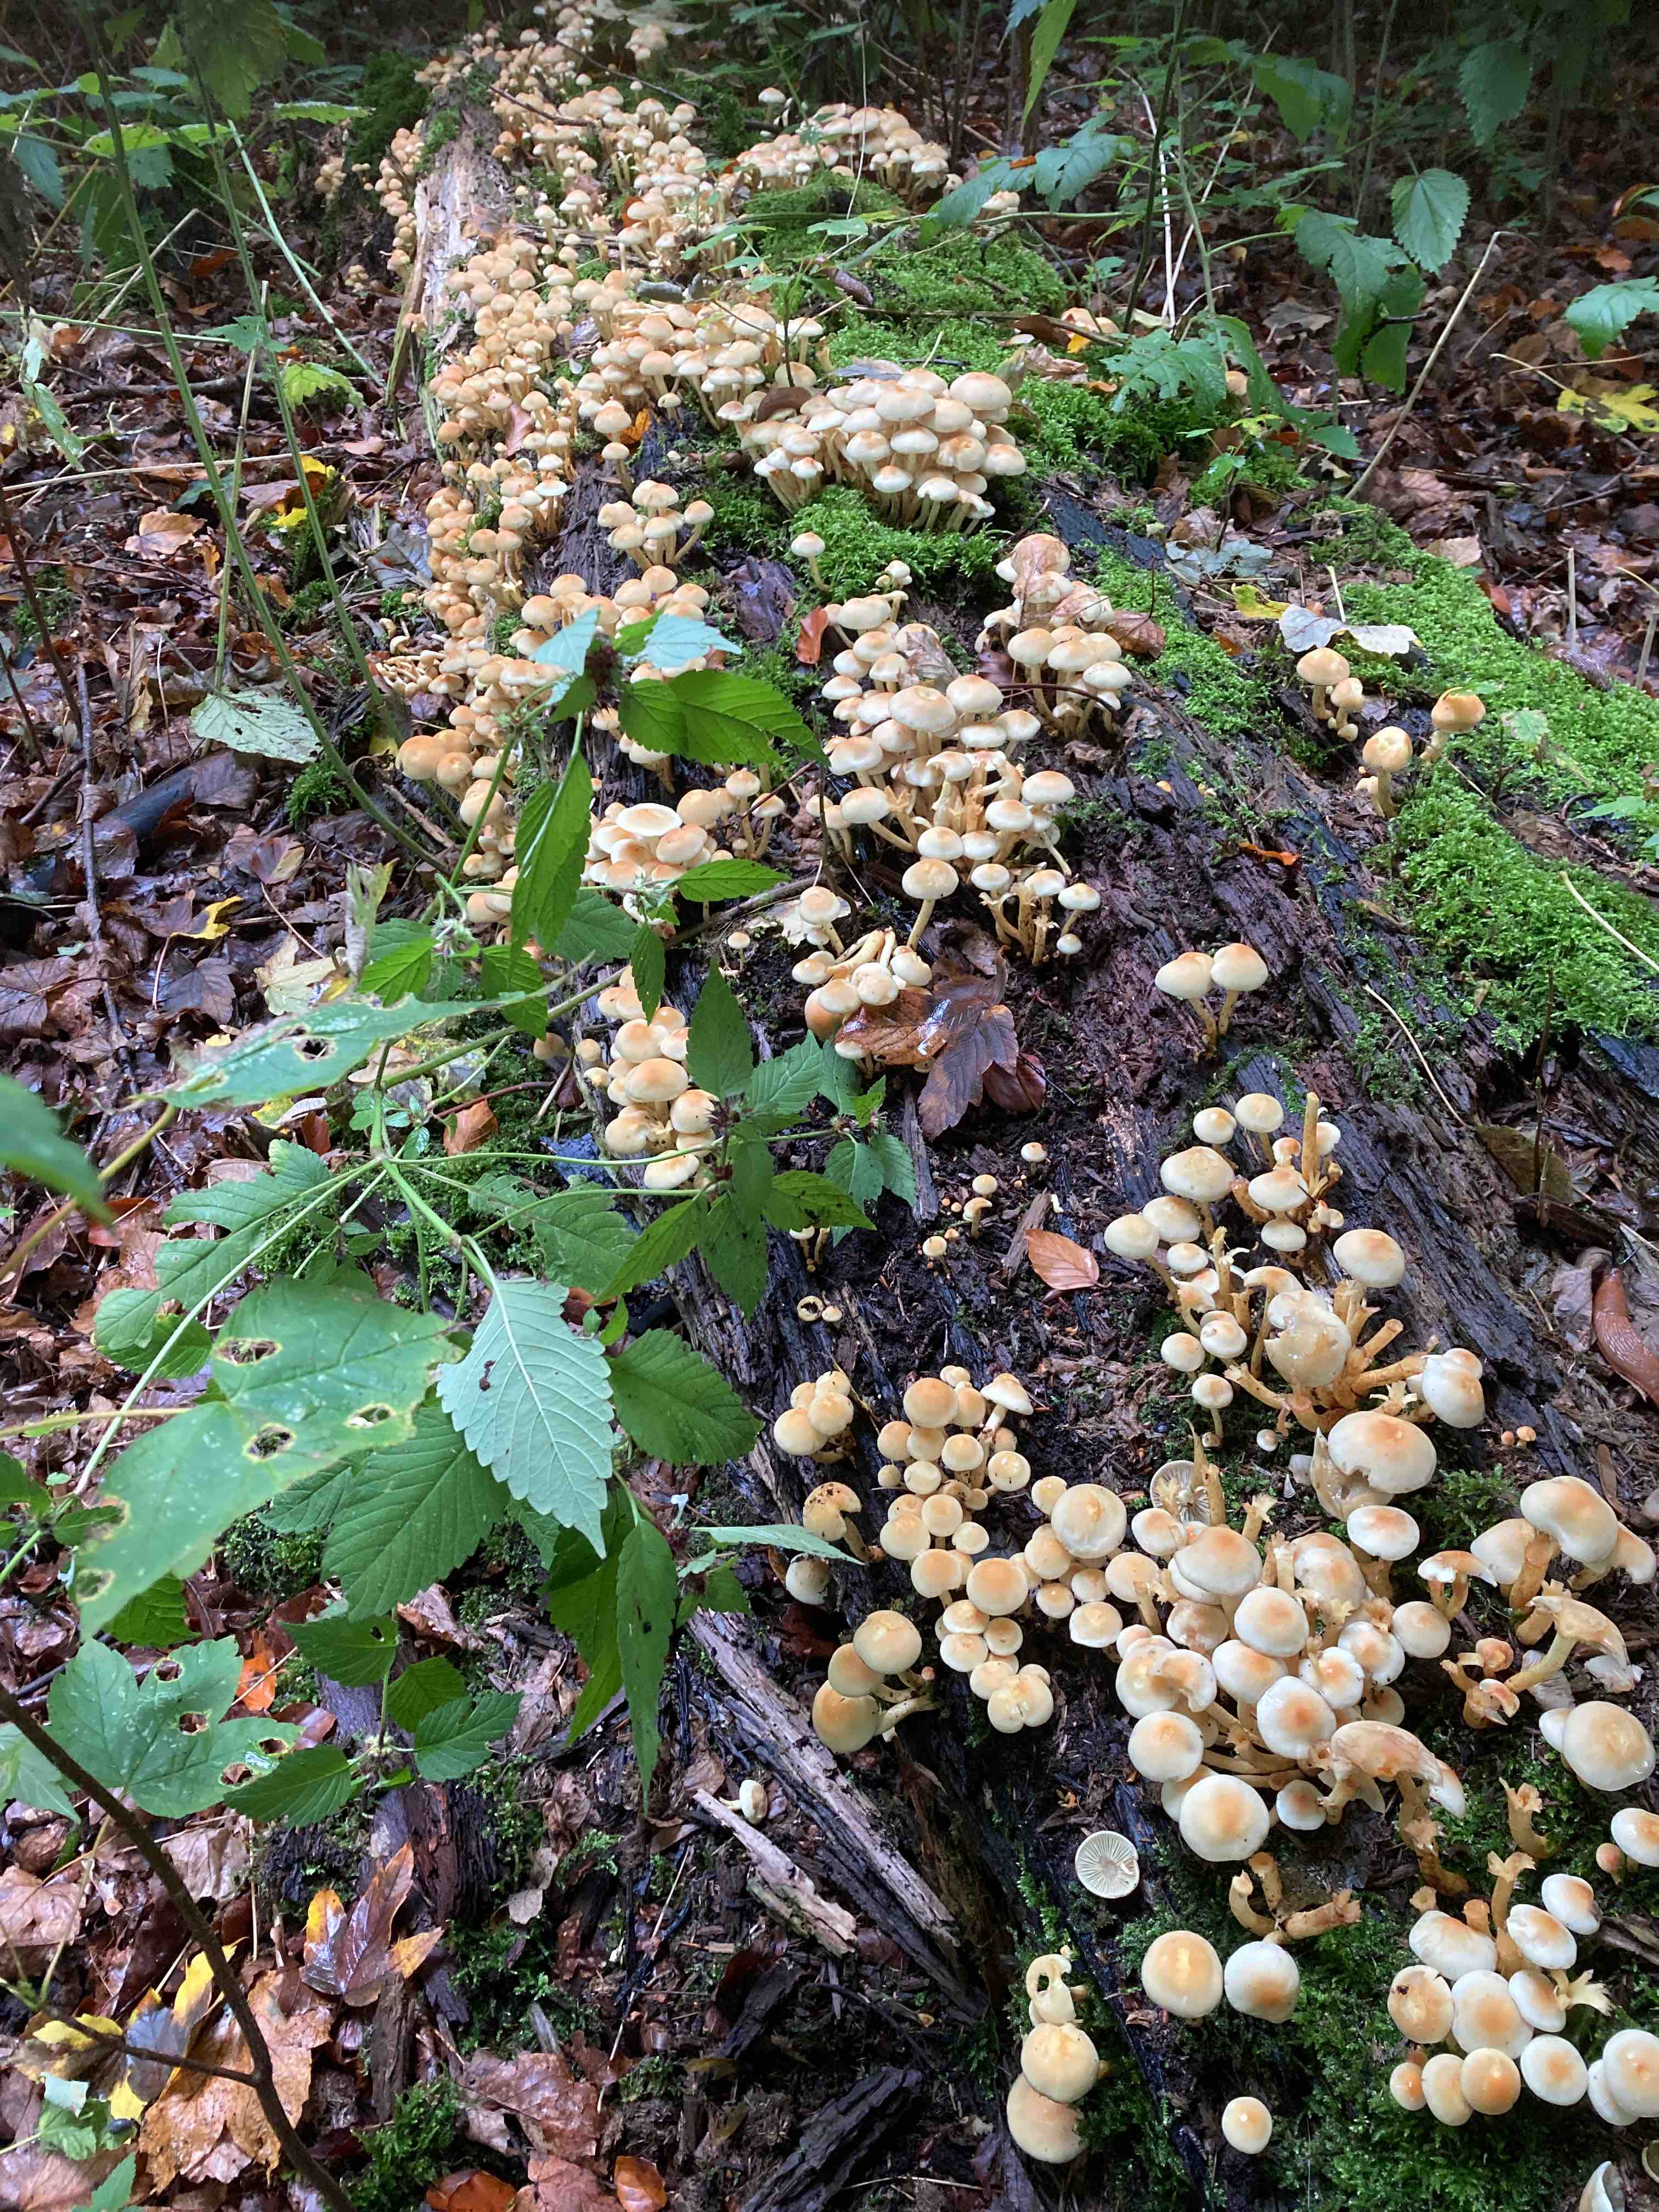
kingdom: Fungi
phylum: Basidiomycota
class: Agaricomycetes
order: Agaricales
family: Strophariaceae
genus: Hypholoma
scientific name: Hypholoma fasciculare
